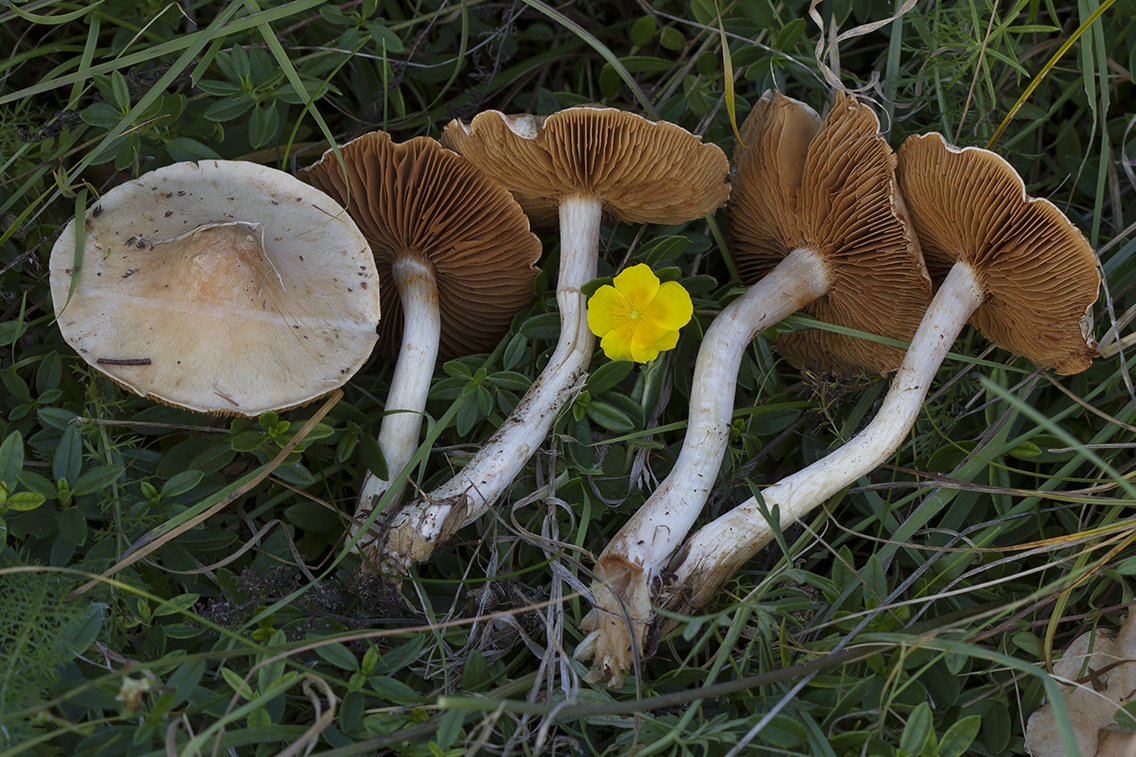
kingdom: Fungi
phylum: Basidiomycota
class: Agaricomycetes
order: Agaricales
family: Cortinariaceae
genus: Cortinarius
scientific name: Cortinarius anomalus
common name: Variable webcap
